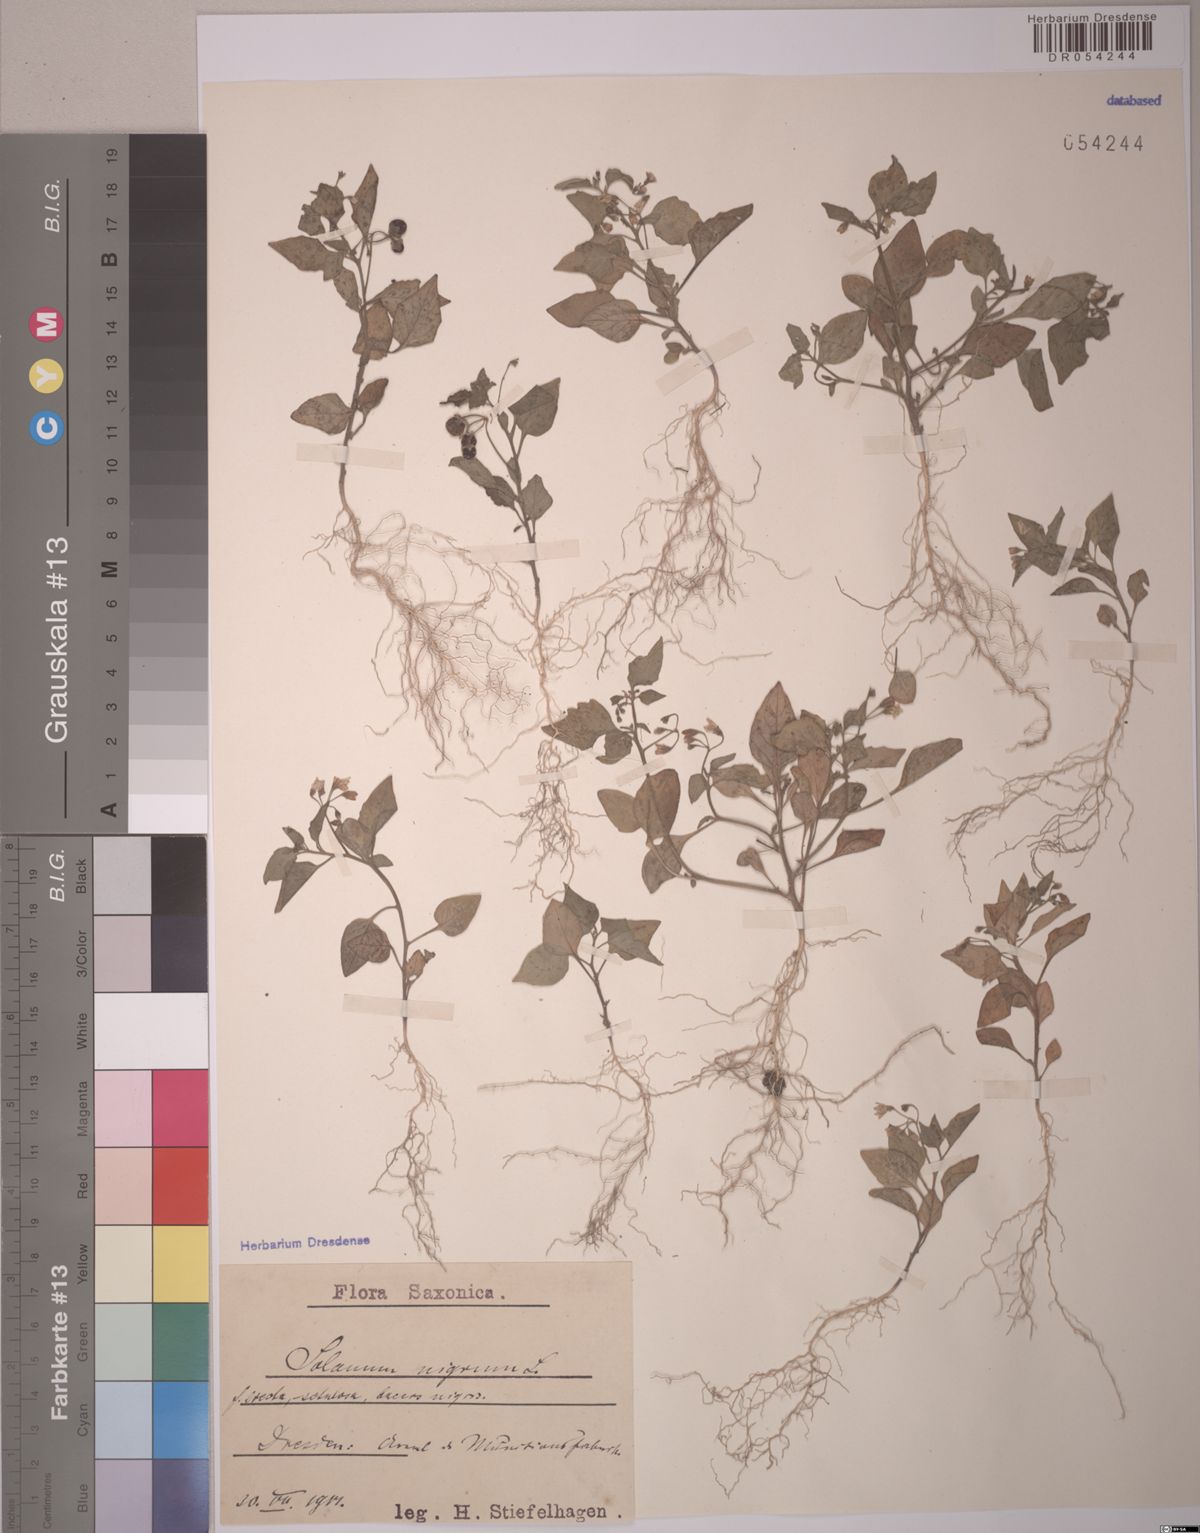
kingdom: Plantae
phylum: Tracheophyta
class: Magnoliopsida
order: Solanales
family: Solanaceae
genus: Solanum
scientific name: Solanum nigrum
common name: Black nightshade
